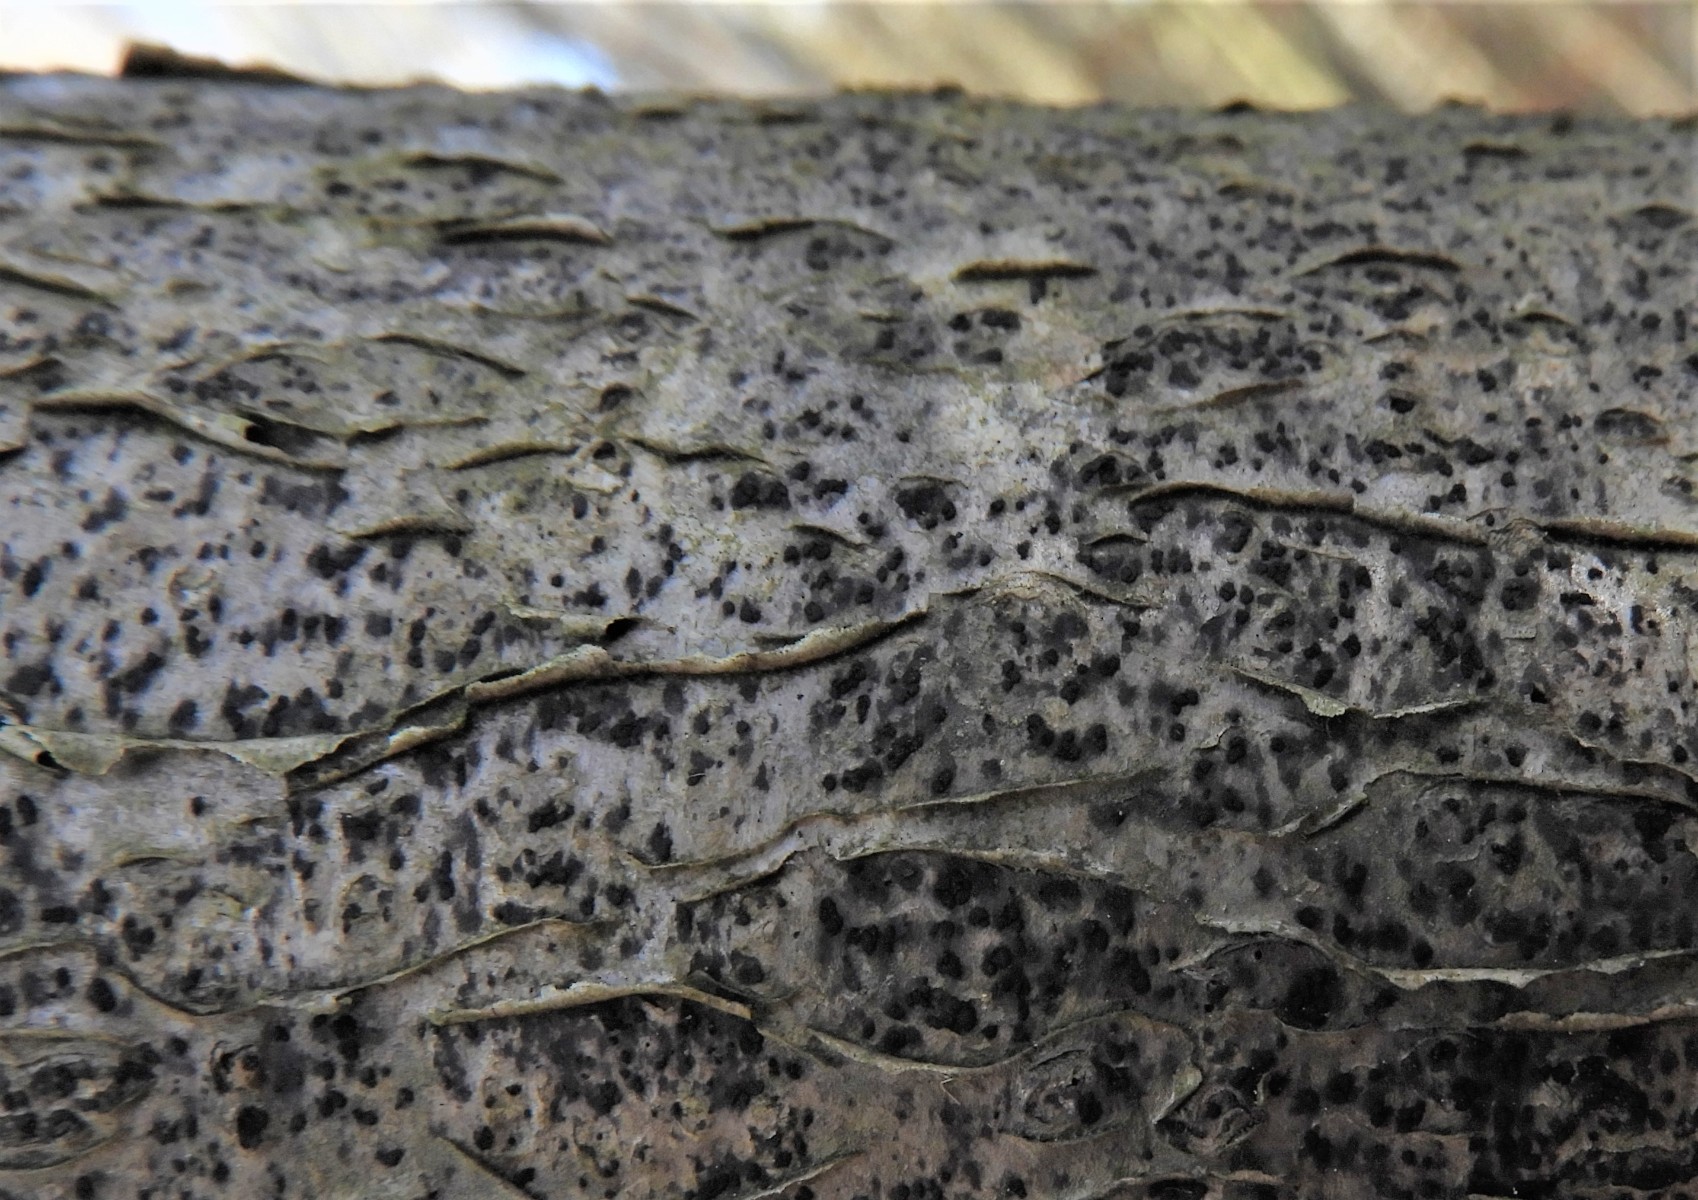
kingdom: Fungi
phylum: Ascomycota
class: Dothideomycetes
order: Pleosporales
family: Cryptocoryneaceae
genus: Cryptocoryneum
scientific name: Cryptocoryneum condensatum
